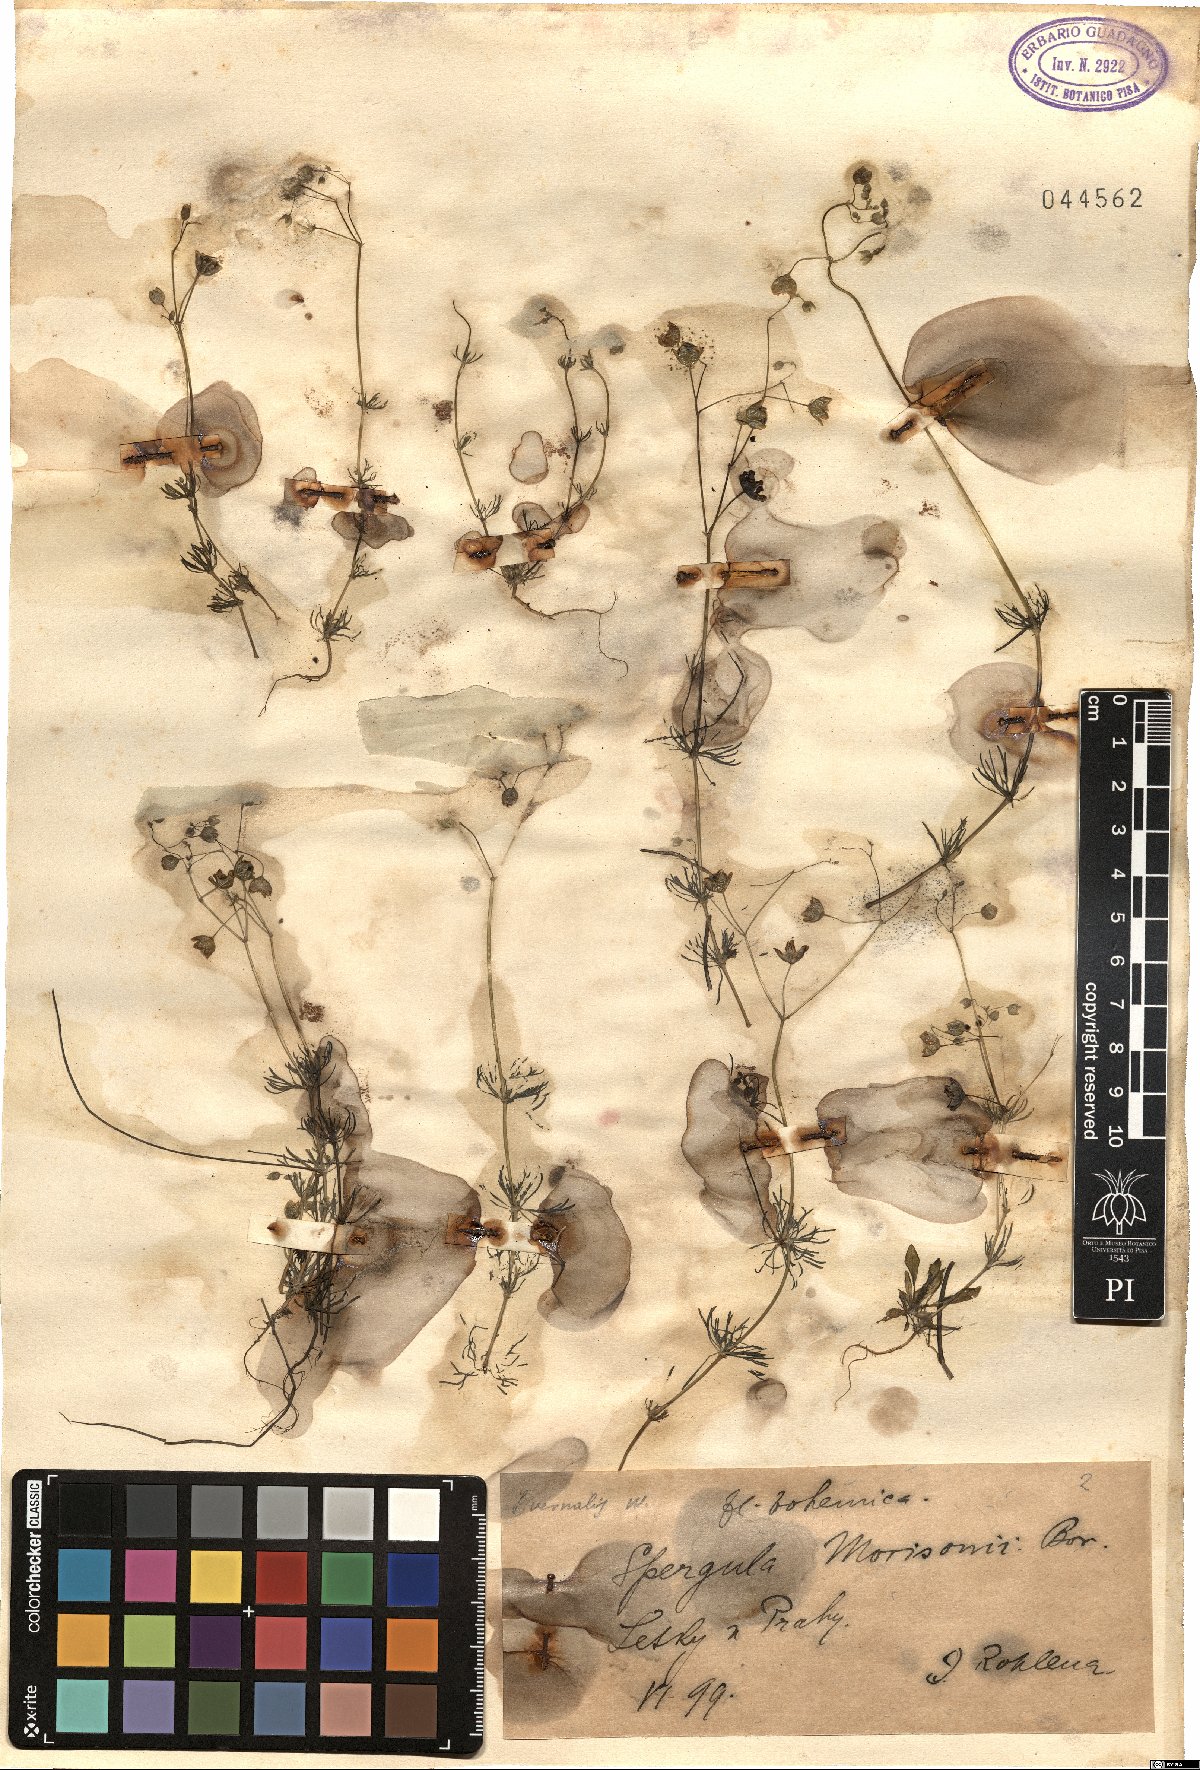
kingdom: Plantae
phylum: Tracheophyta
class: Magnoliopsida
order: Caryophyllales
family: Caryophyllaceae
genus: Spergula
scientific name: Spergula pentandra
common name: Wingstem spurry
